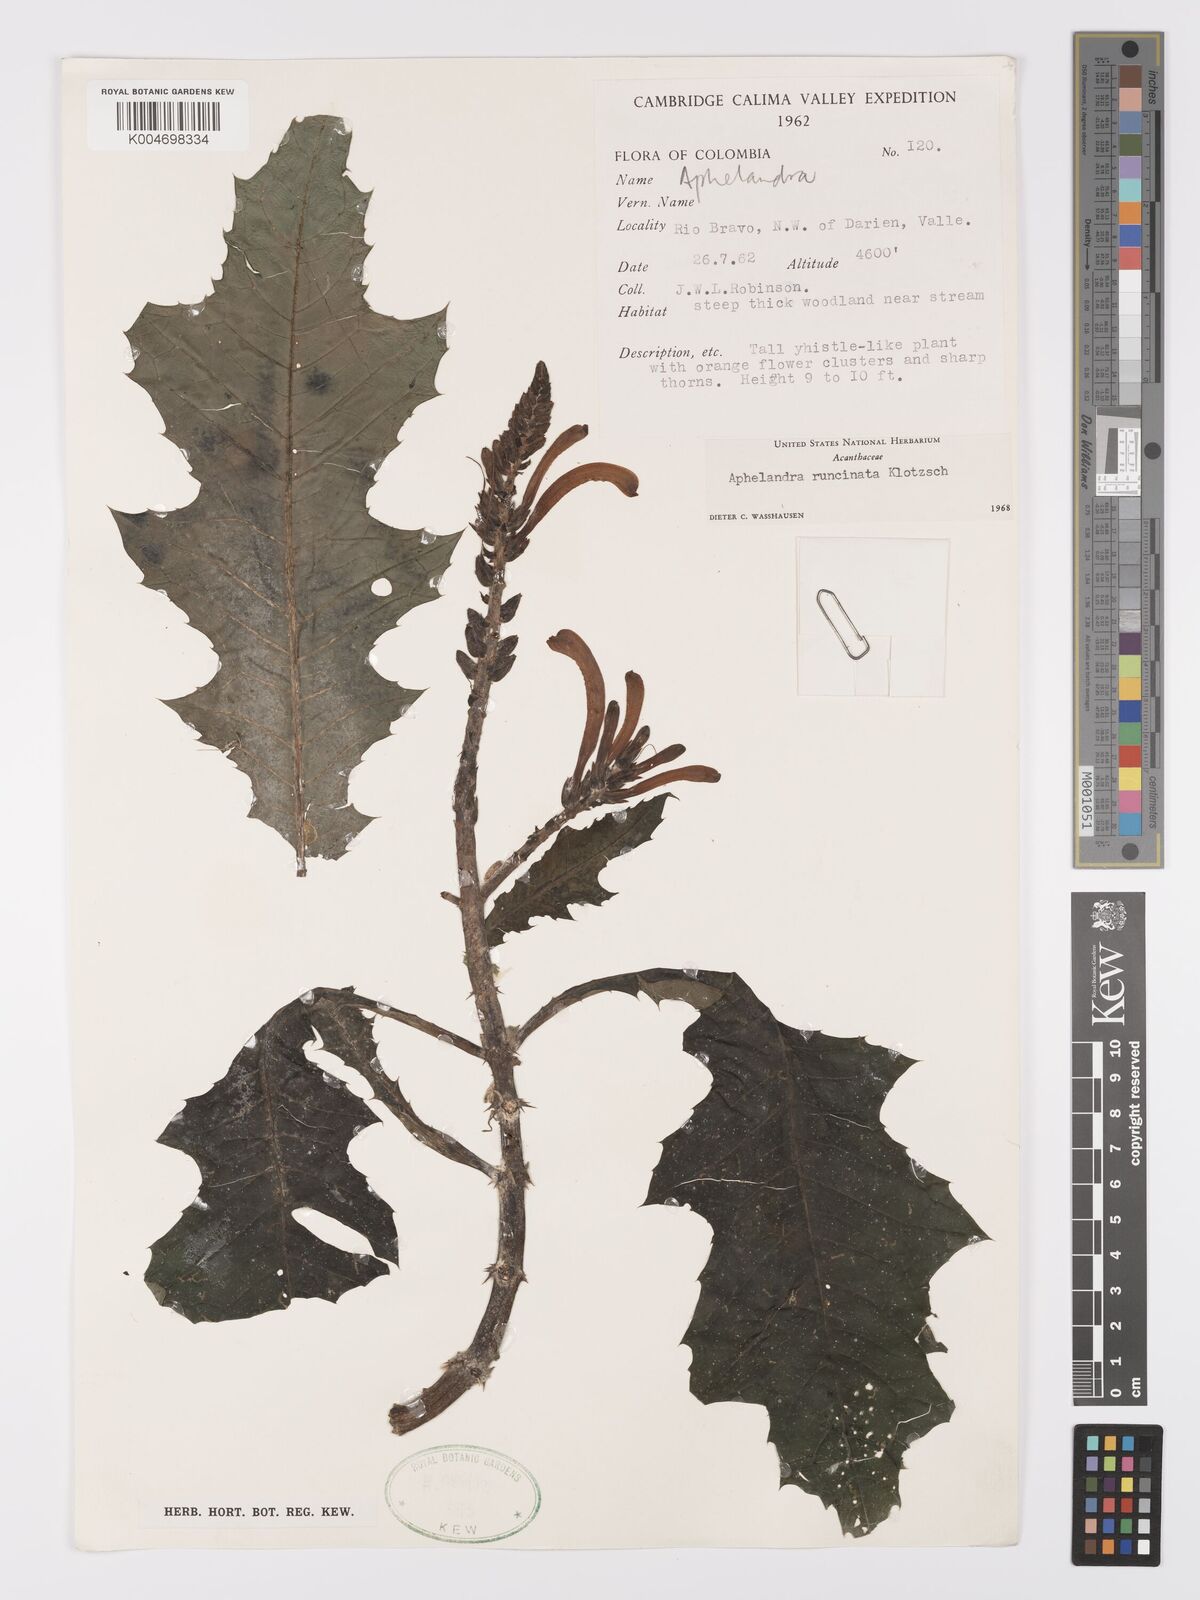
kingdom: Plantae
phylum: Tracheophyta
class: Magnoliopsida
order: Lamiales
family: Acanthaceae
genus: Aphelandra
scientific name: Aphelandra runcinata
